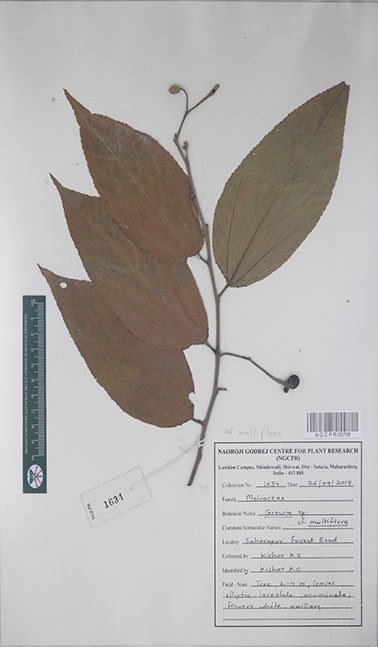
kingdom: Plantae
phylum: Tracheophyta
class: Magnoliopsida
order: Malvales
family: Malvaceae
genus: Grewia
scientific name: Grewia multiflora
